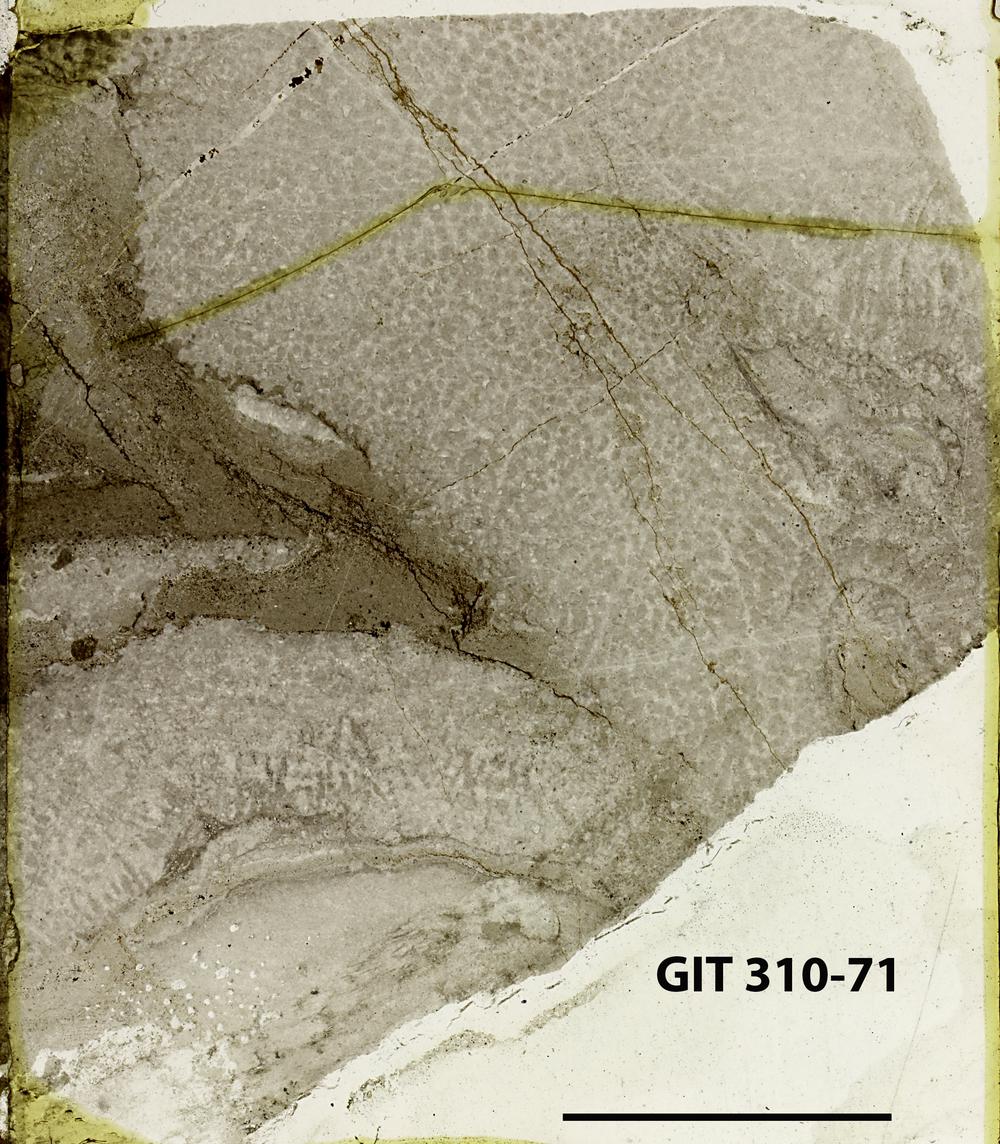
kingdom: Animalia
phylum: Porifera
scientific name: Porifera
